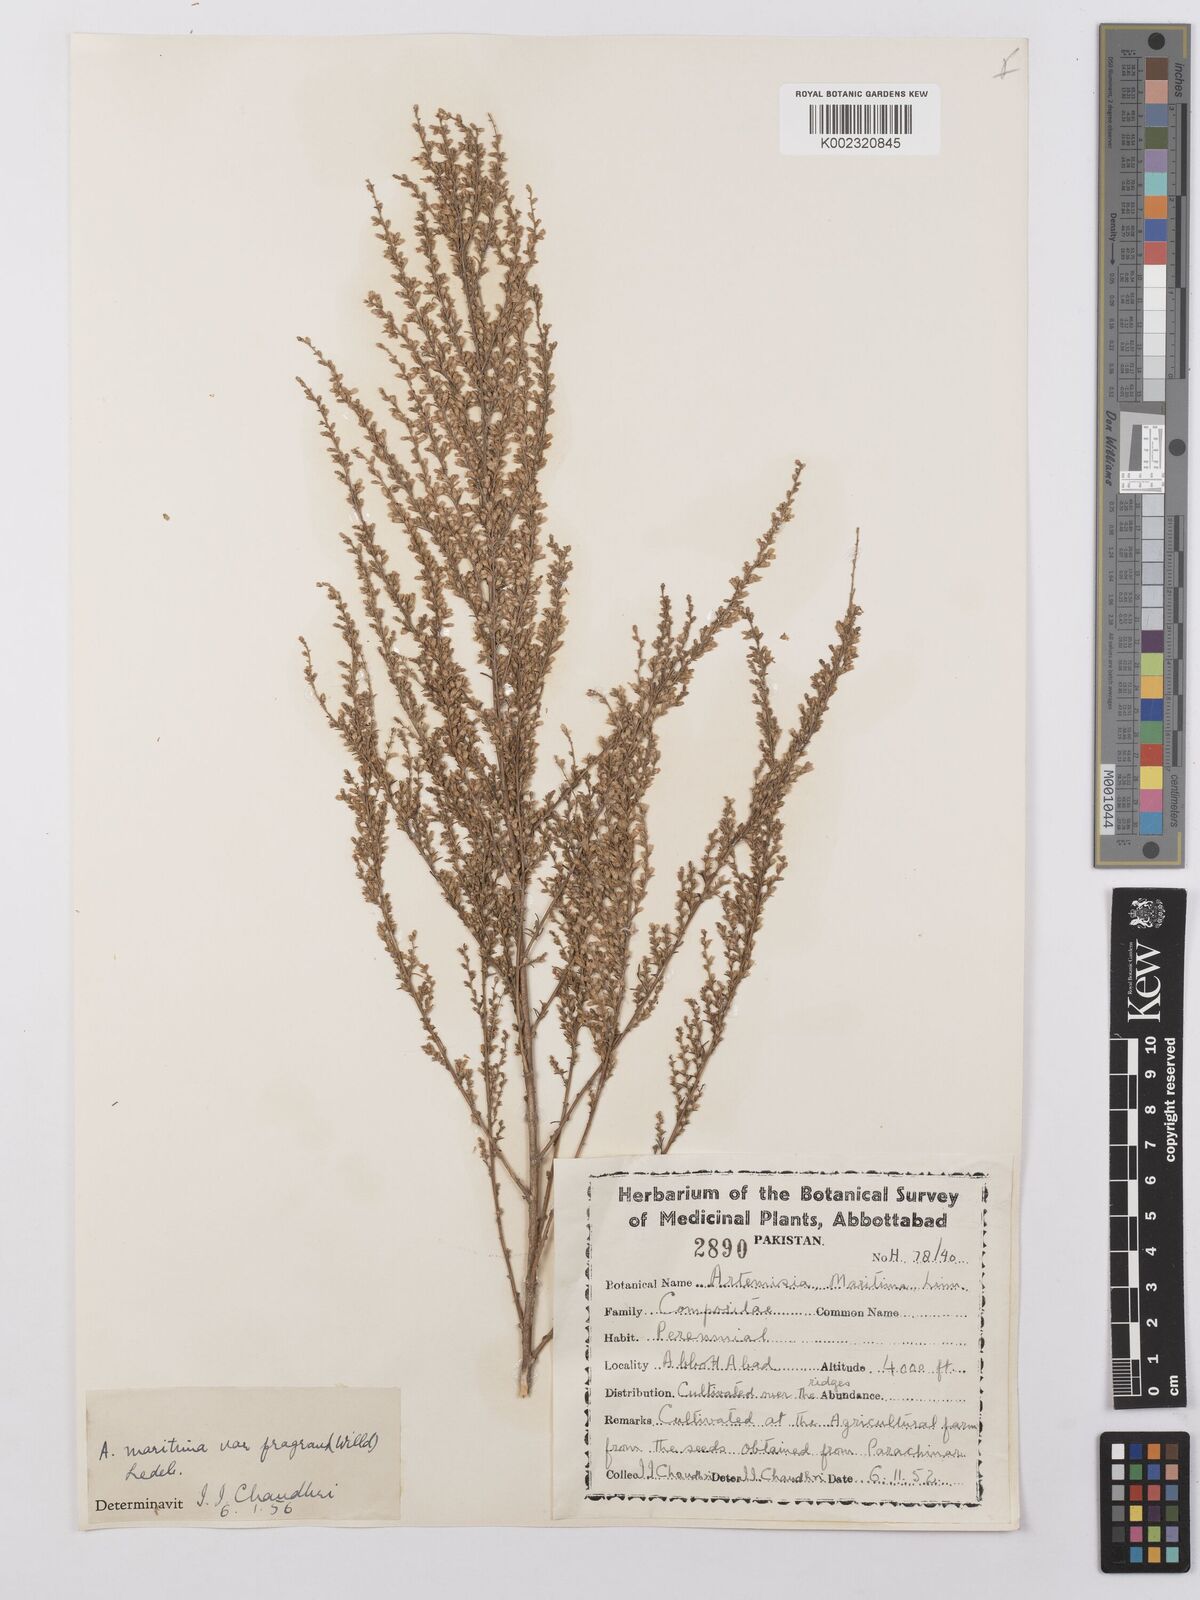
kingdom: Plantae
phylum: Tracheophyta
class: Magnoliopsida
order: Asterales
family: Asteraceae
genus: Artemisia
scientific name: Artemisia kurramensis
